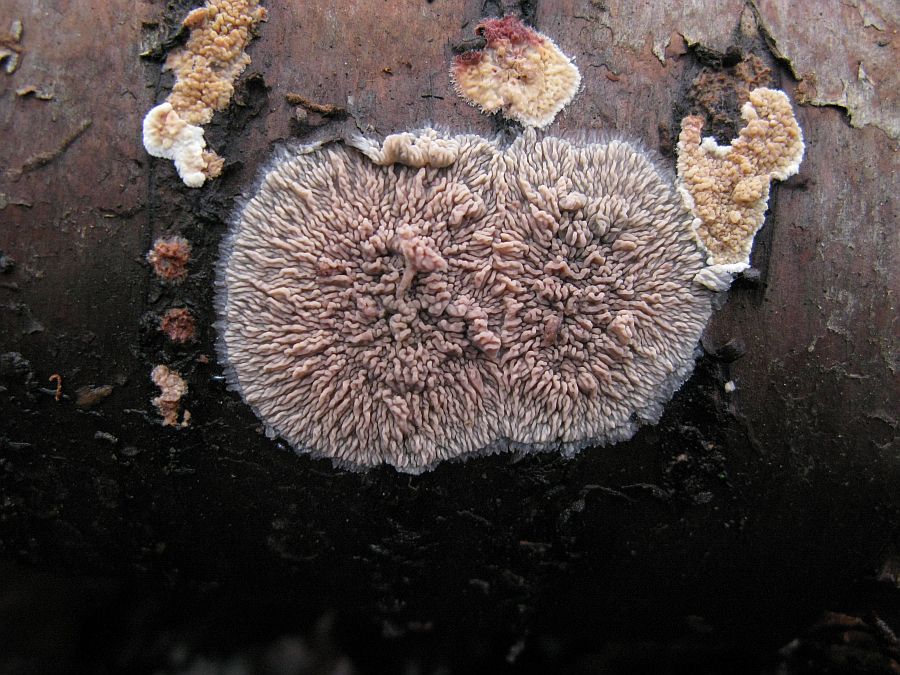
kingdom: Fungi
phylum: Basidiomycota
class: Agaricomycetes
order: Polyporales
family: Meruliaceae
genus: Phlebia
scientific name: Phlebia radiata
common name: stråle-åresvamp
